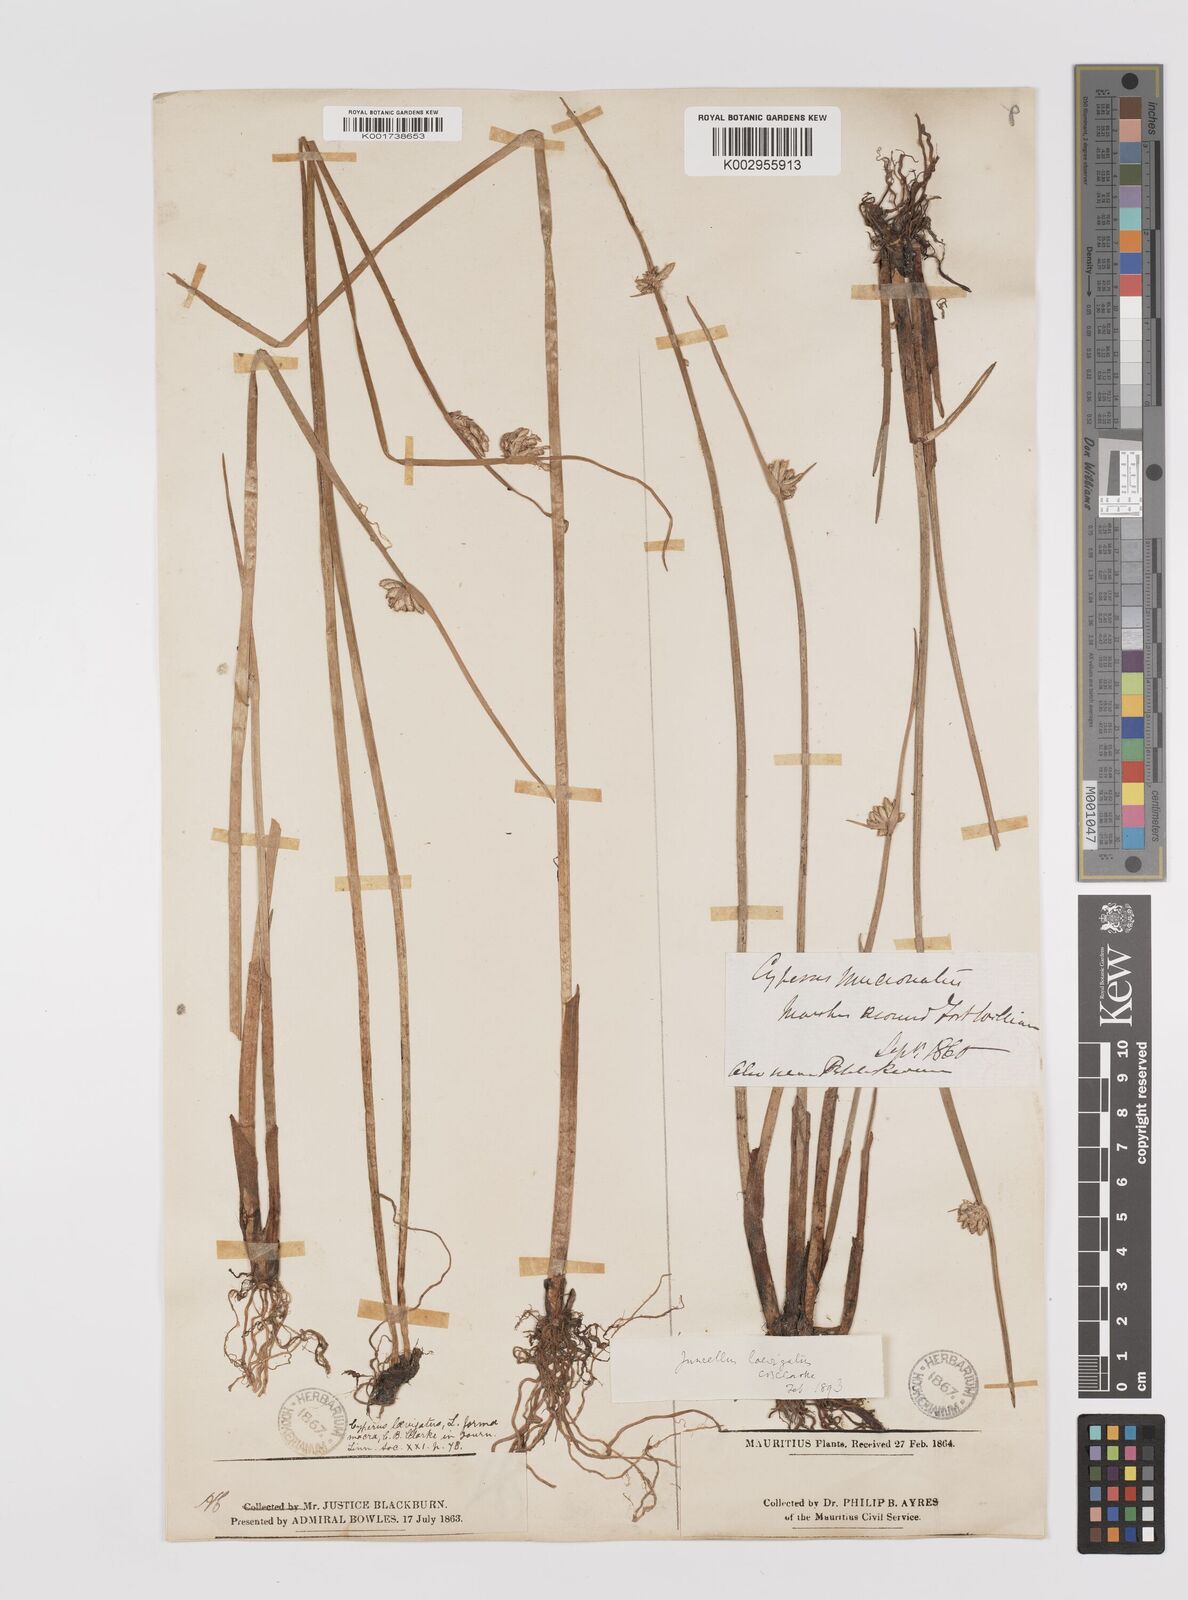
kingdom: Plantae
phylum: Tracheophyta
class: Liliopsida
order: Poales
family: Cyperaceae
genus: Cyperus
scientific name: Cyperus laevigatus
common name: Smooth flat sedge
